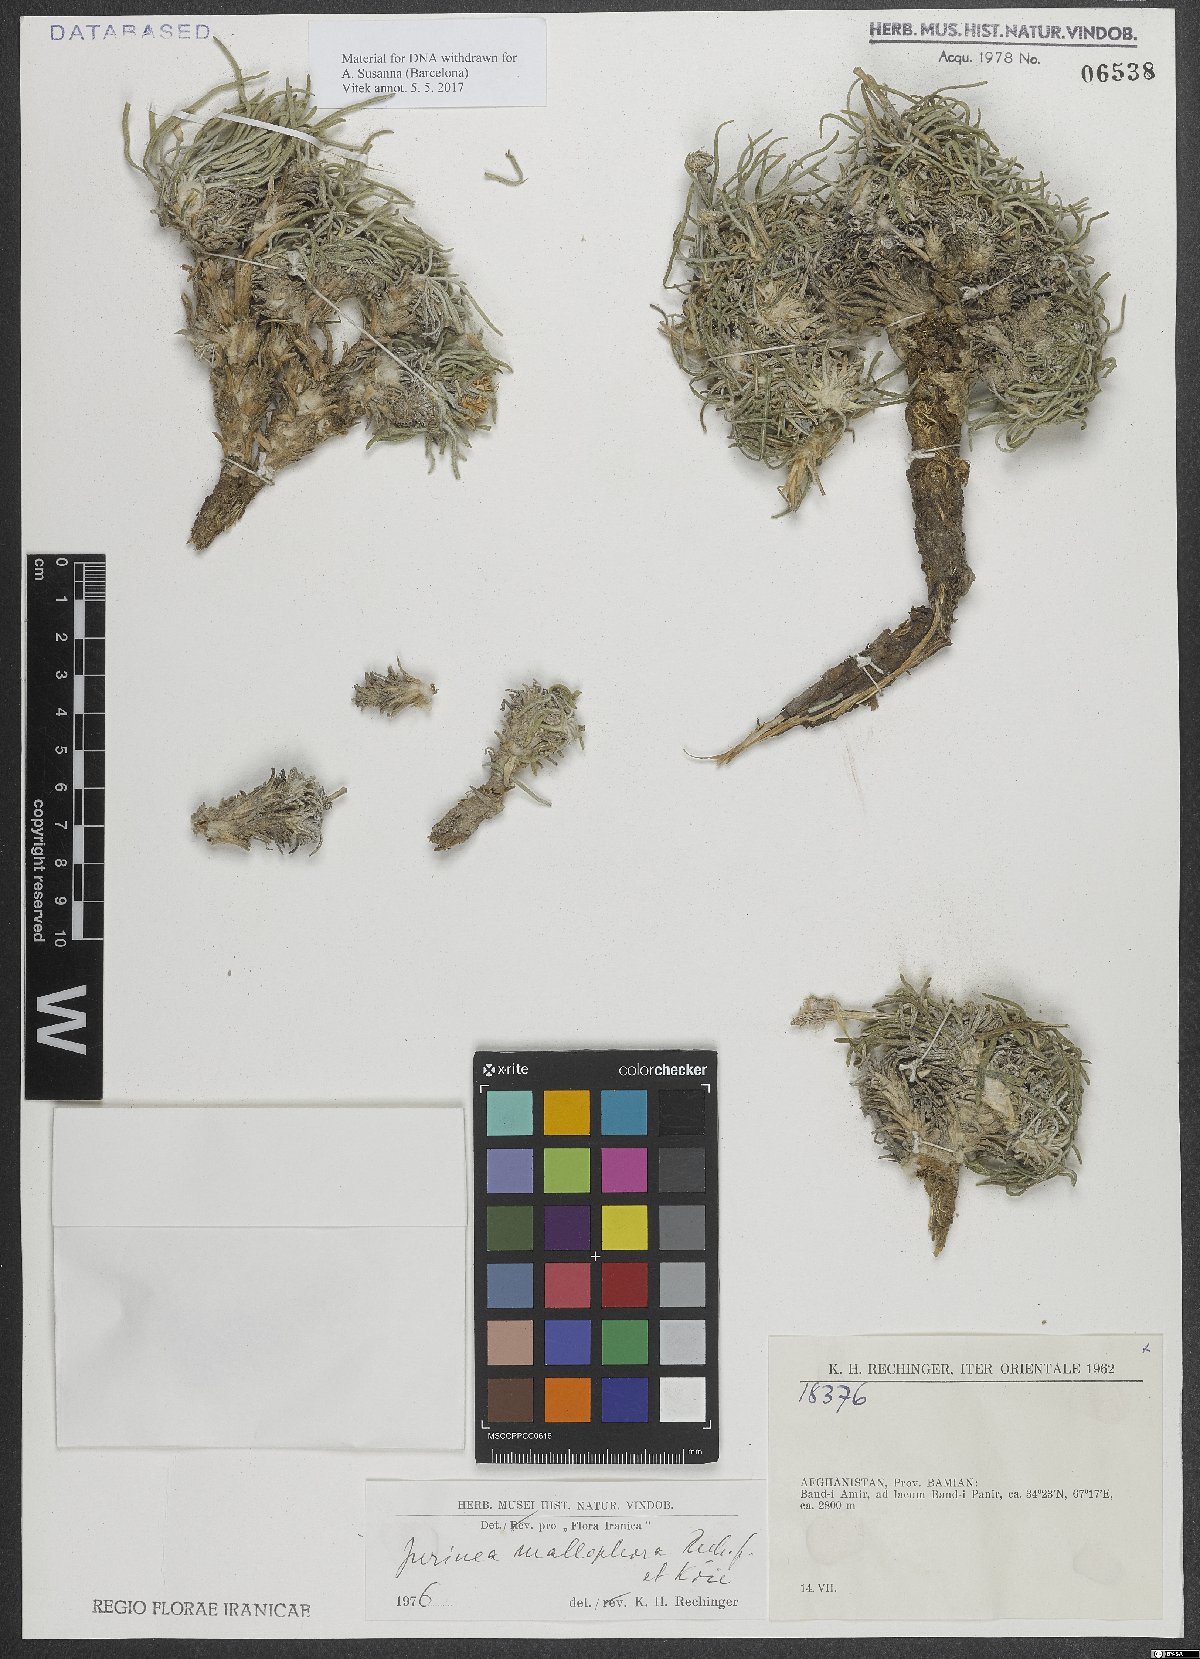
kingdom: Plantae
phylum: Tracheophyta
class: Magnoliopsida
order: Asterales
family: Asteraceae
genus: Jurinea
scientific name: Jurinea mallophora
